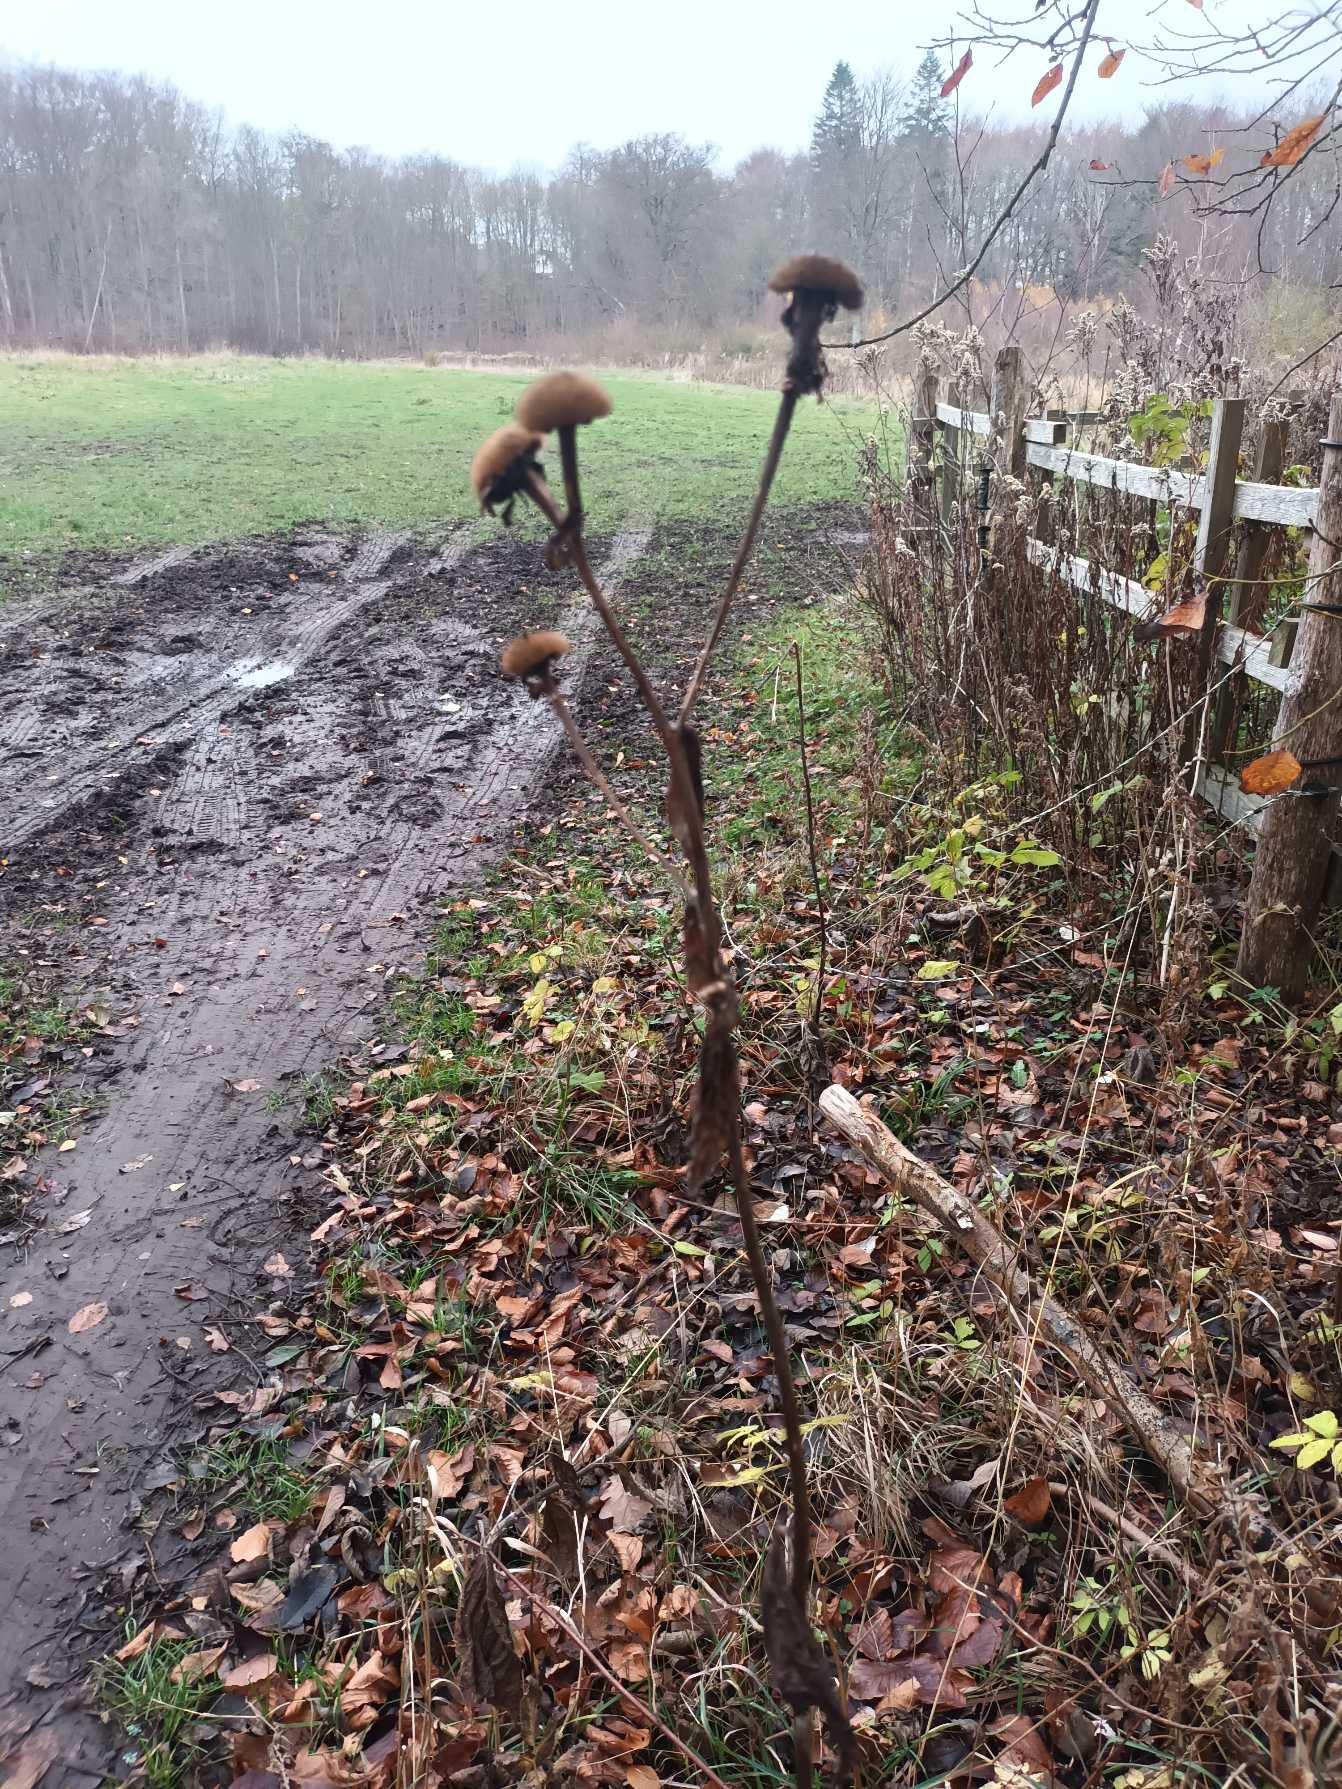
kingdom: Plantae
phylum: Tracheophyta
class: Magnoliopsida
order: Asterales
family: Asteraceae
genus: Telekia
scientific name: Telekia speciosa
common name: Tusindstråle
